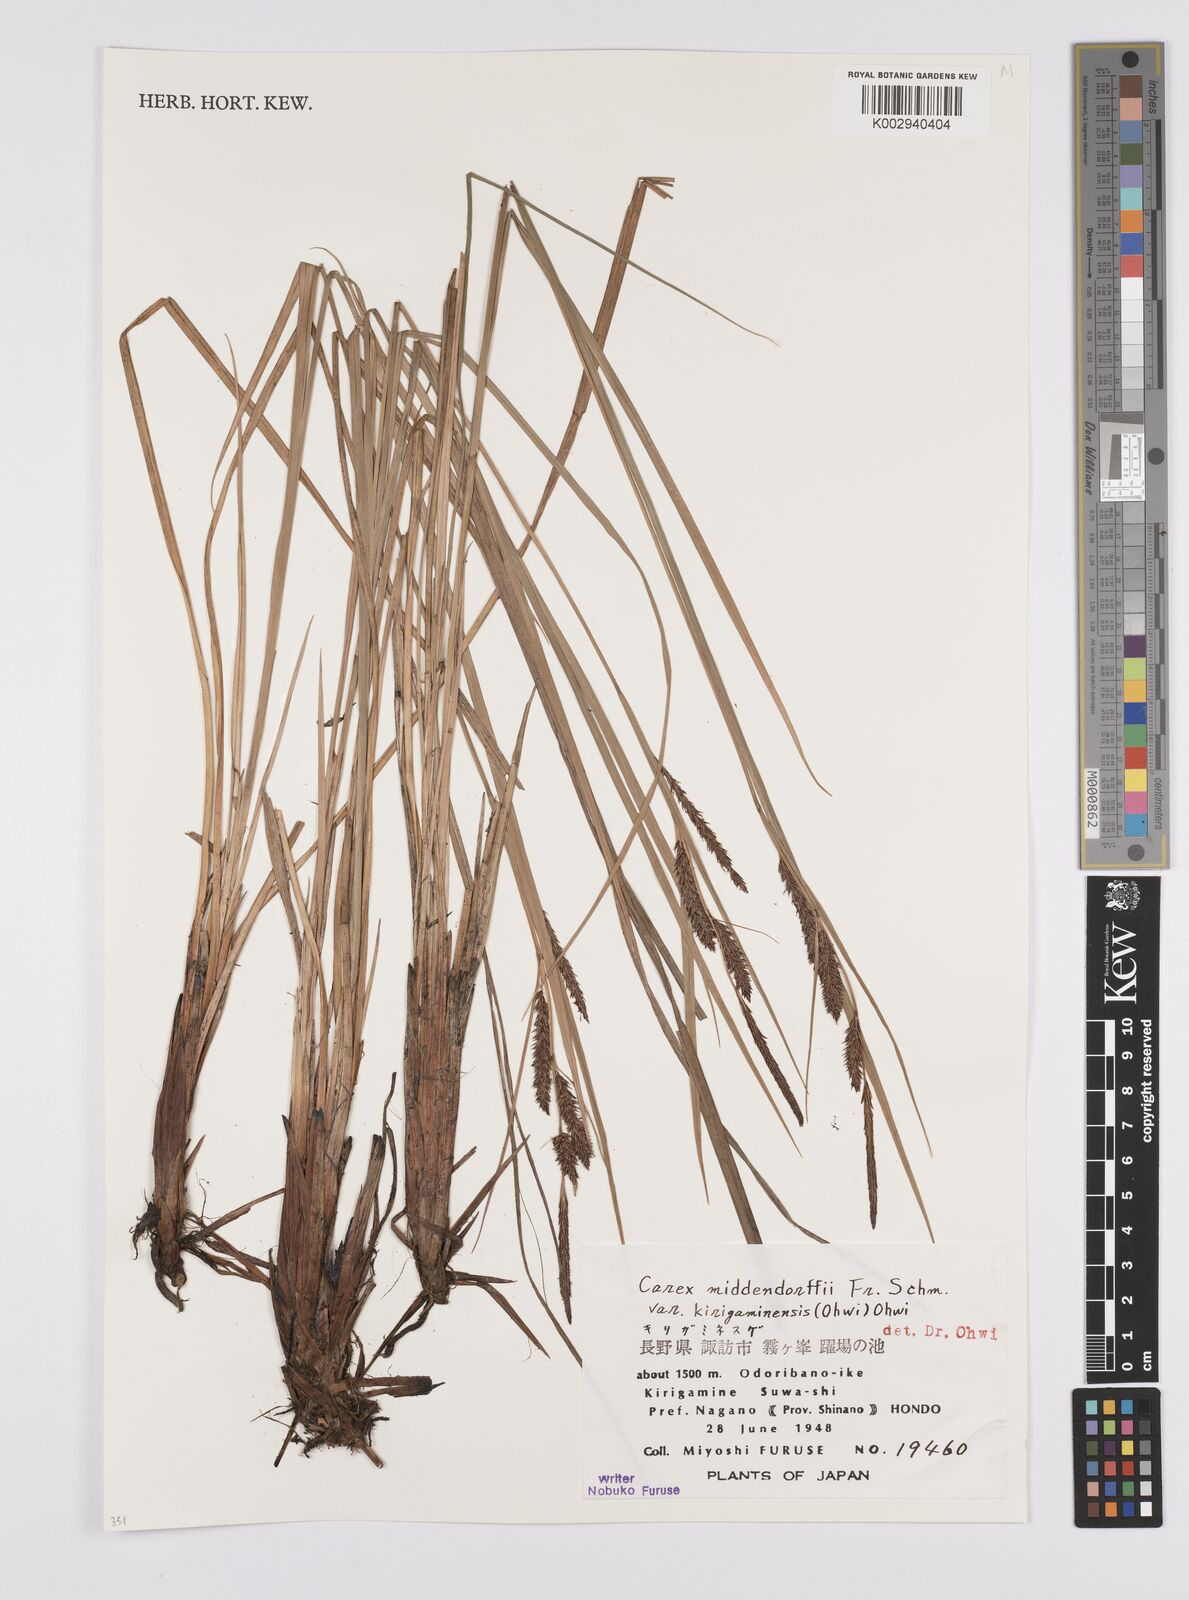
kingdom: Plantae
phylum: Tracheophyta
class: Liliopsida
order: Poales
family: Cyperaceae
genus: Carex
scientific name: Carex middendorffii
